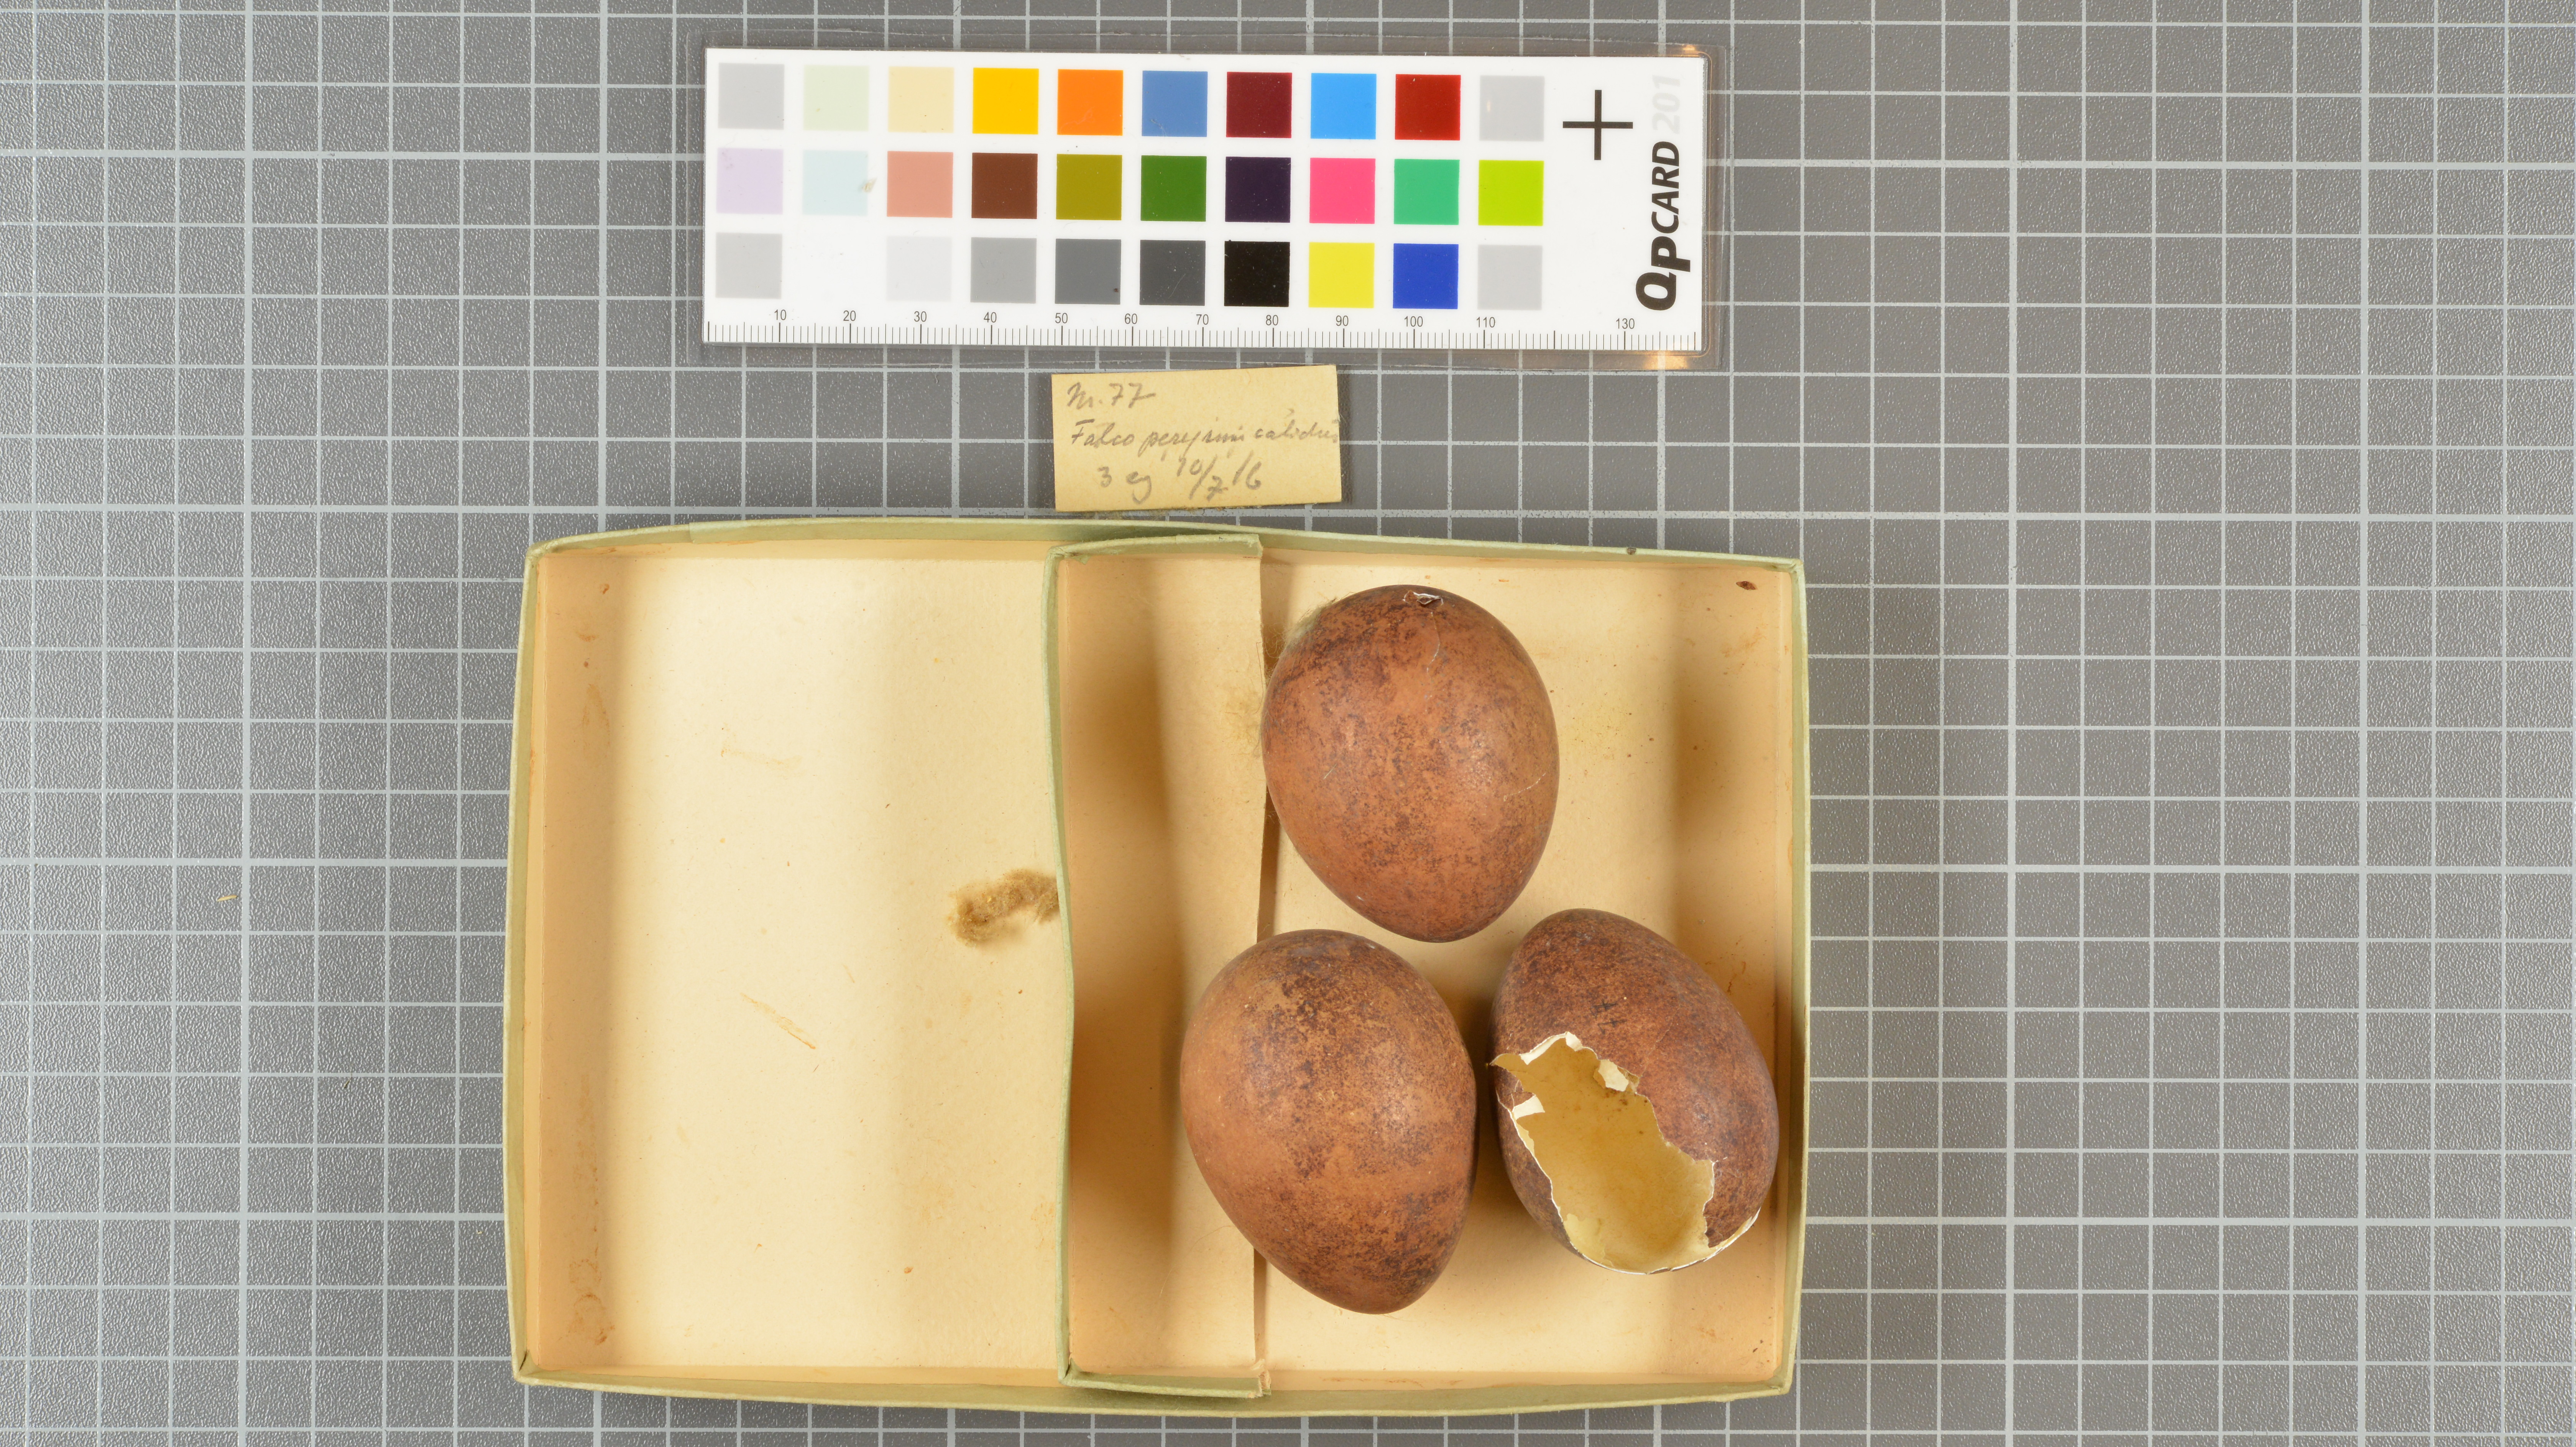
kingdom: Animalia
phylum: Chordata
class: Aves
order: Falconiformes
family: Falconidae
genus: Falco
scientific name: Falco peregrinus
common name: Peregrine falcon
